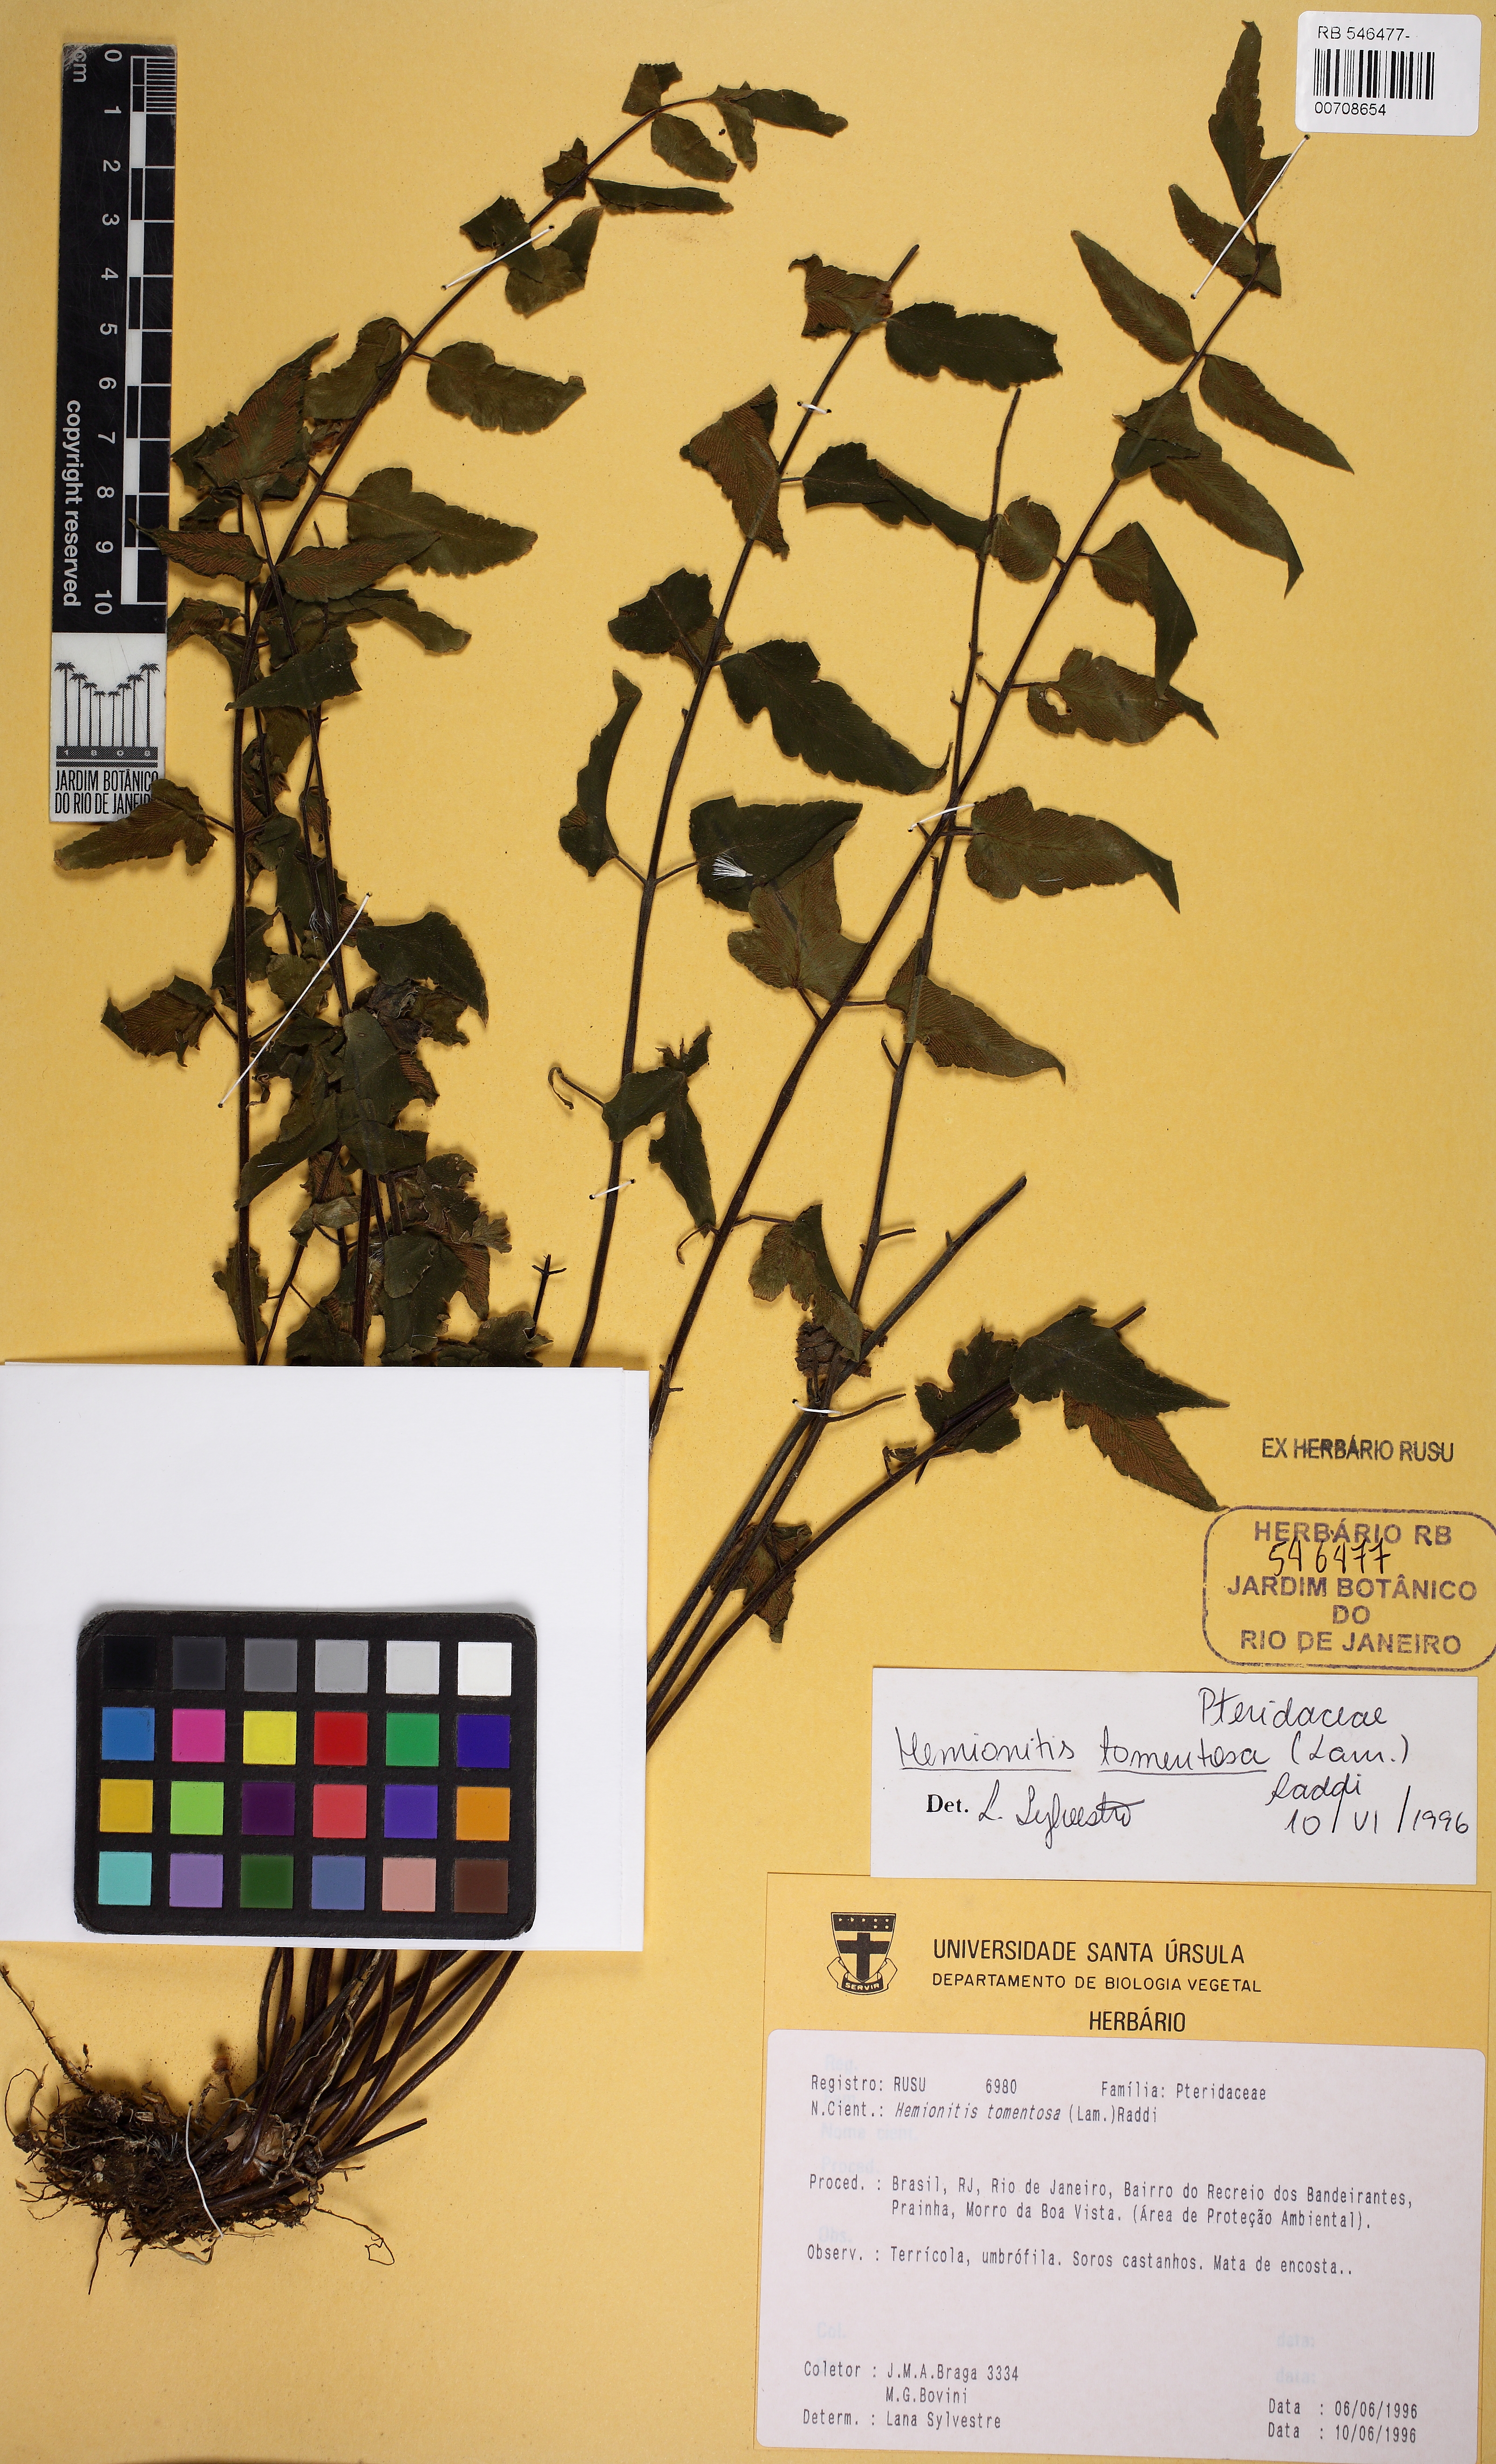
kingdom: Plantae
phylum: Tracheophyta
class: Polypodiopsida
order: Polypodiales
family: Pteridaceae
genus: Hemionitis
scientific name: Hemionitis tomentosa
